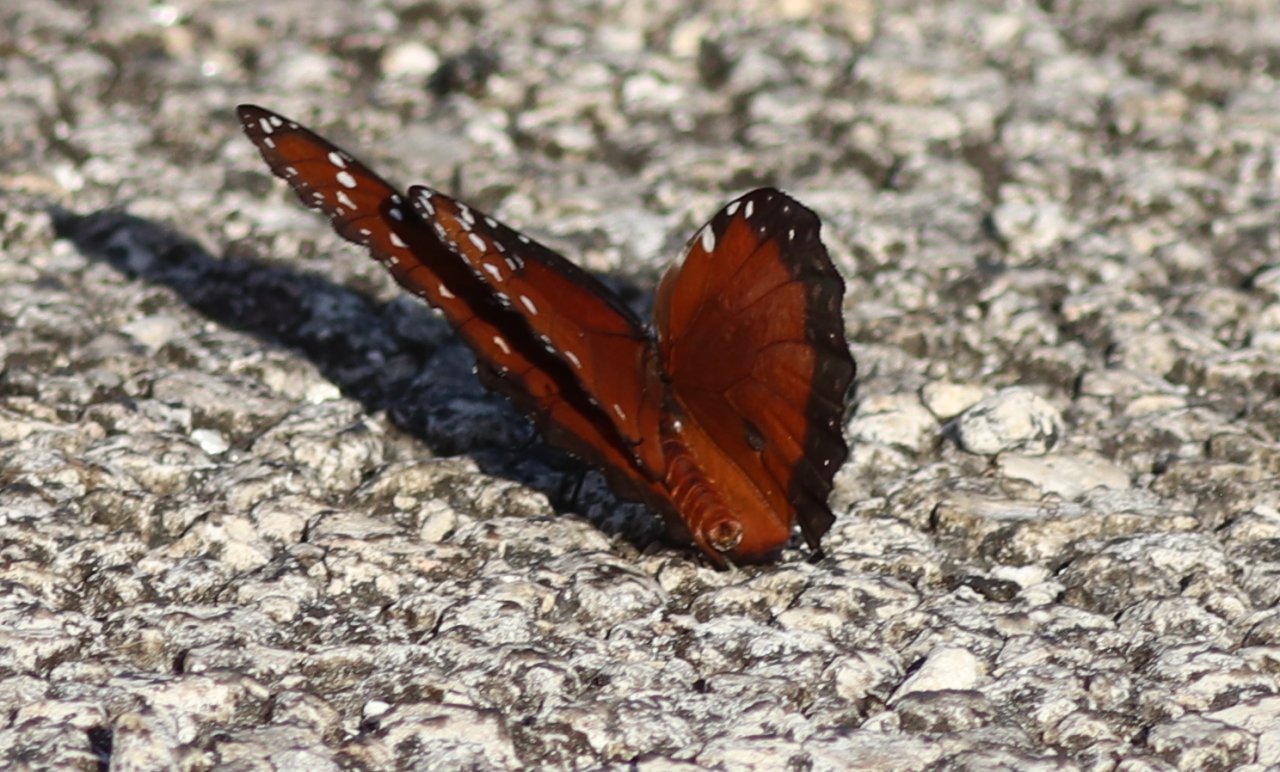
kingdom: Animalia
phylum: Arthropoda
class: Insecta
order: Lepidoptera
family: Nymphalidae
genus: Danaus
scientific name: Danaus gilippus
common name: Queen
